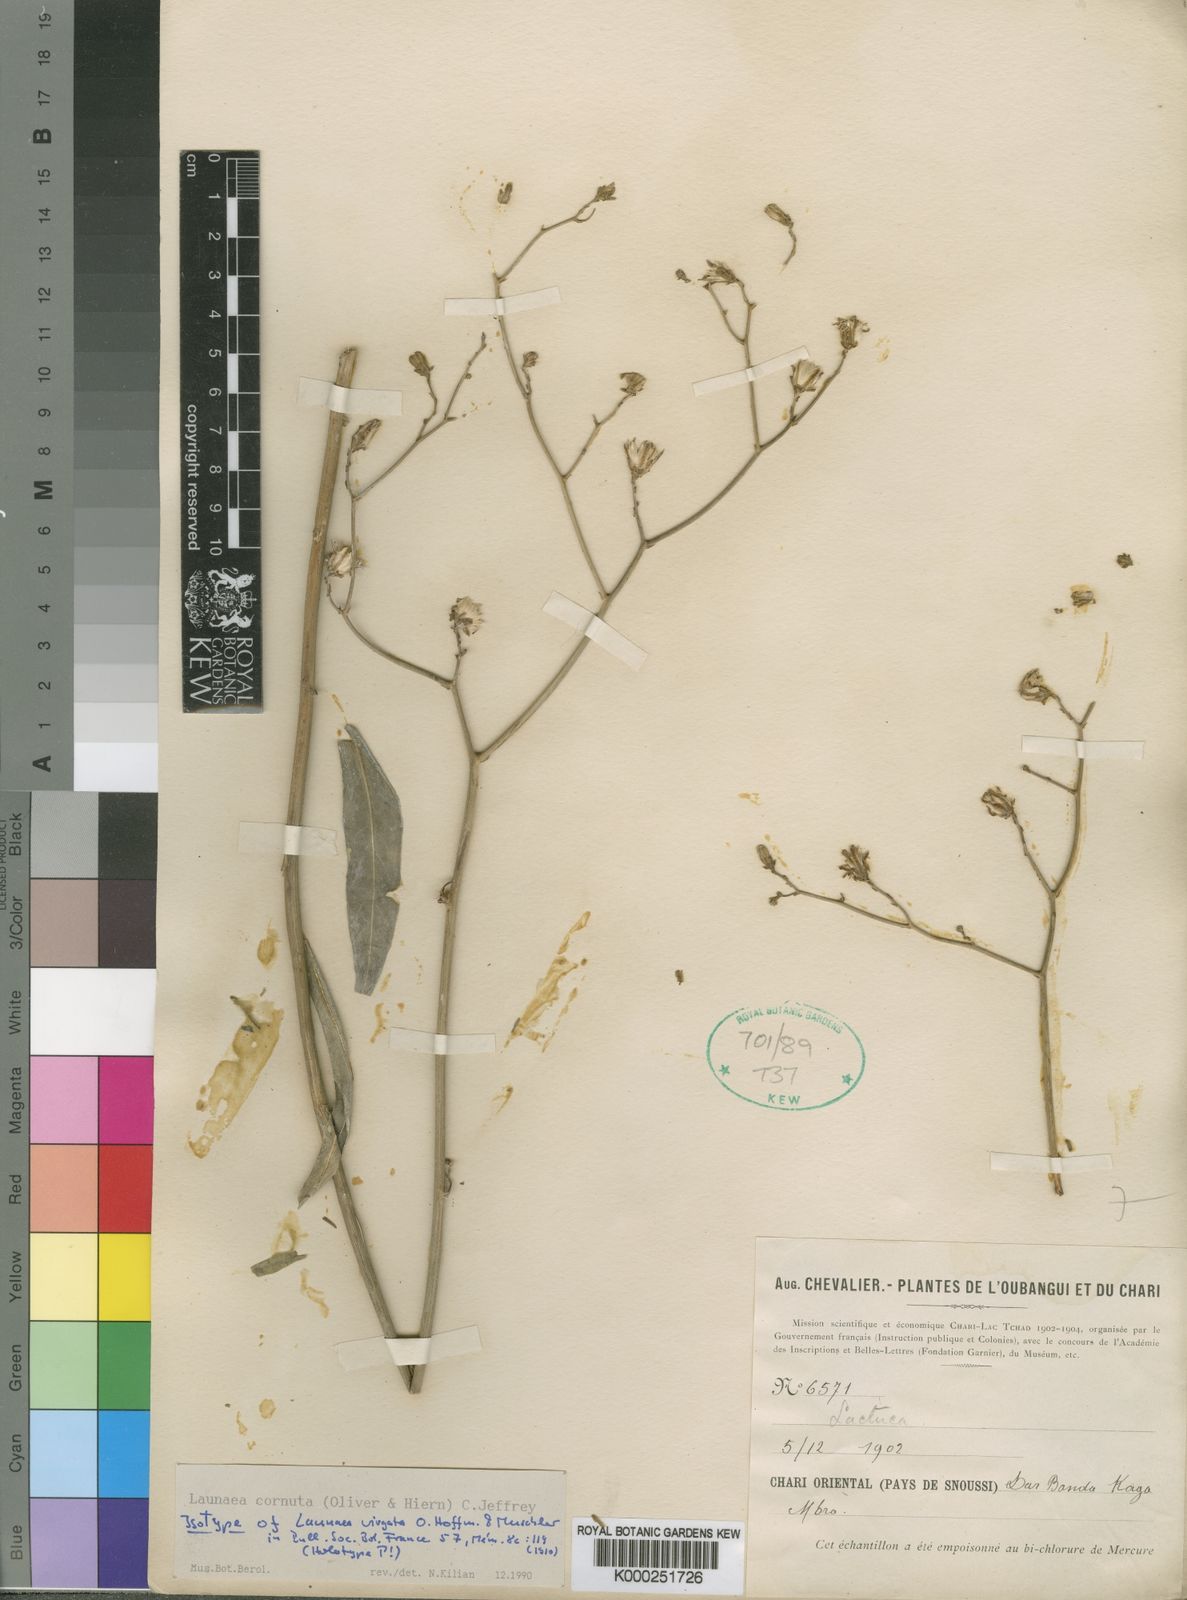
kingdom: Plantae
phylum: Tracheophyta
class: Magnoliopsida
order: Asterales
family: Asteraceae
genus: Launaea
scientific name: Launaea cornuta
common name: Bitter-lettuce
